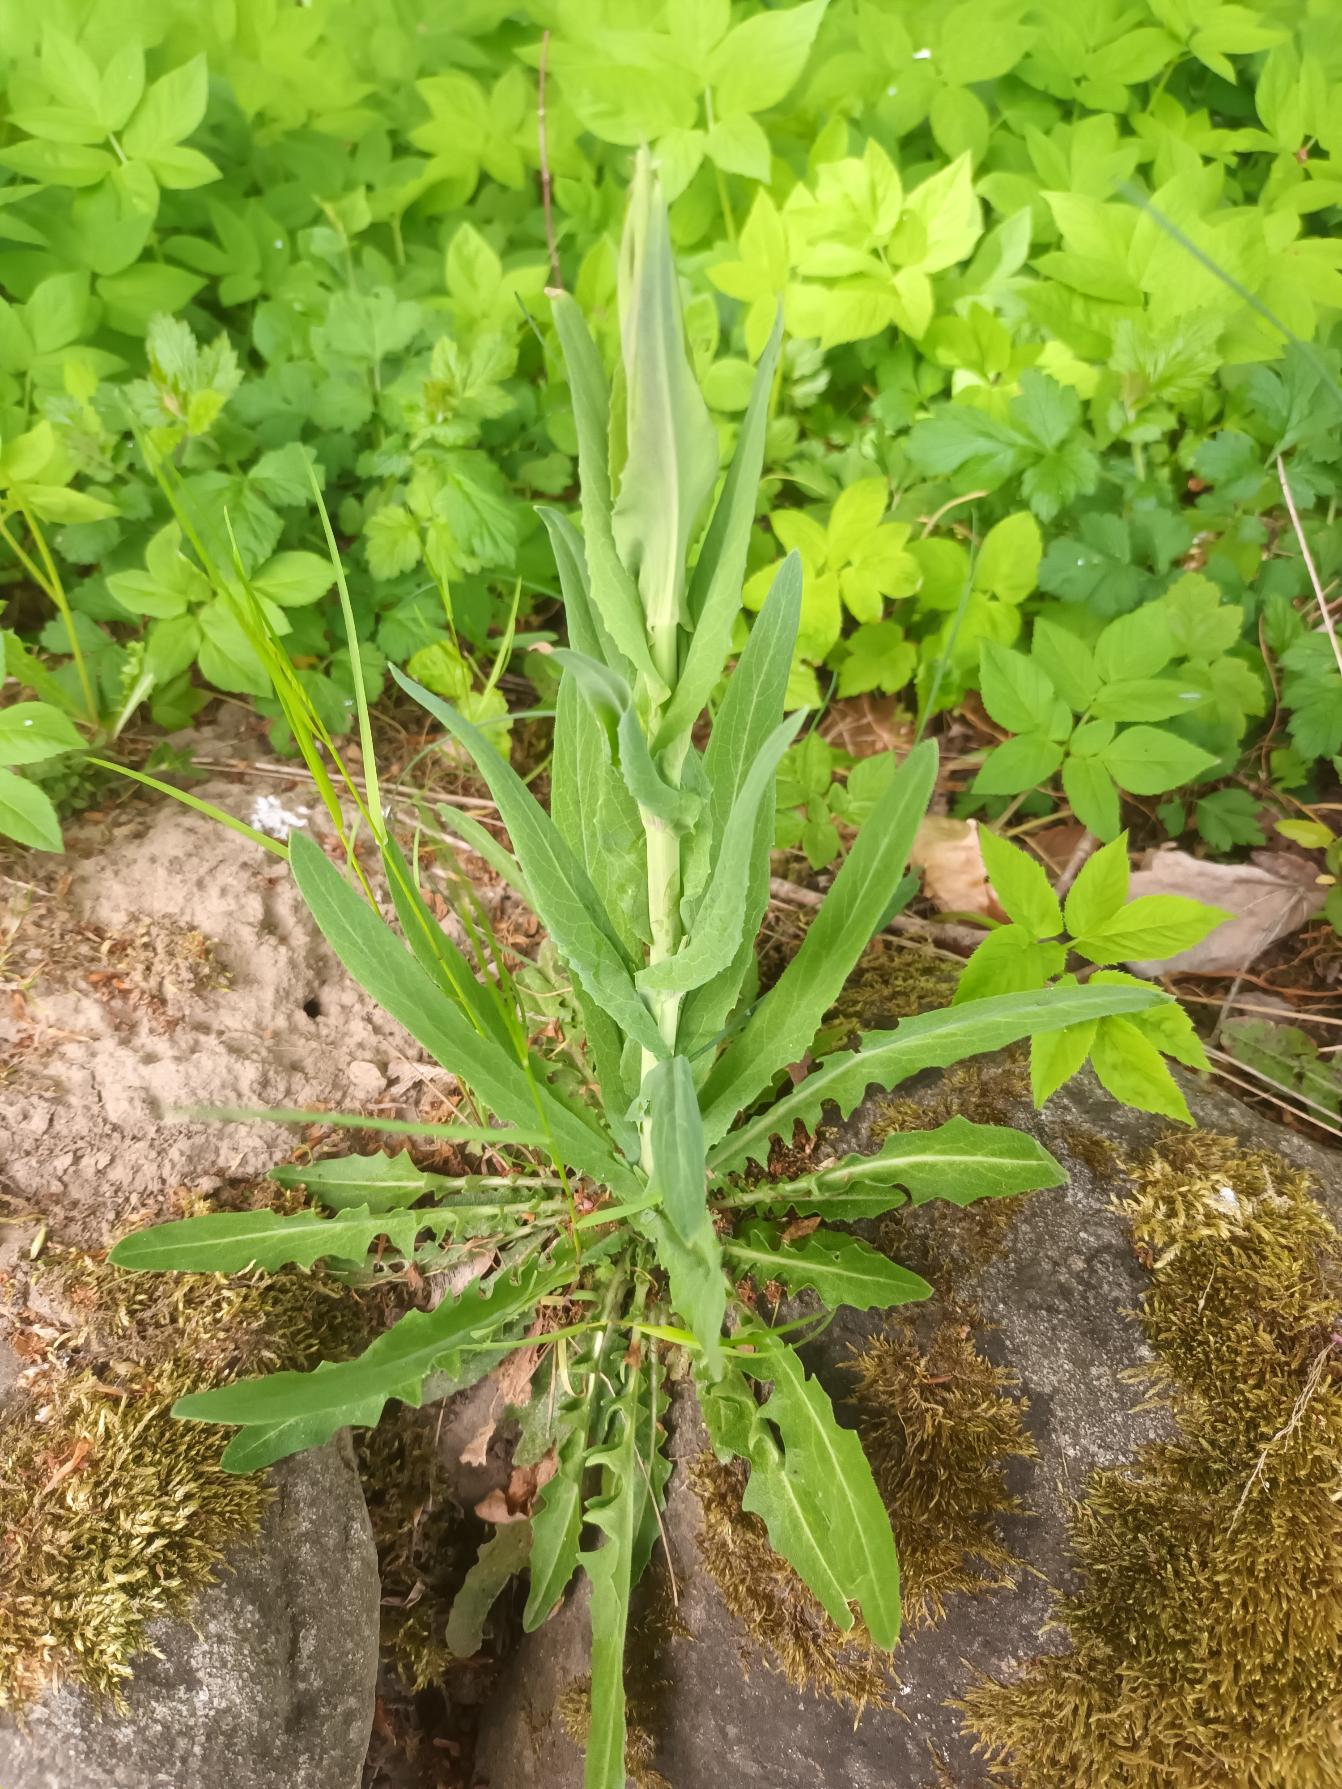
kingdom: Plantae
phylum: Tracheophyta
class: Magnoliopsida
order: Brassicales
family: Brassicaceae
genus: Turritis
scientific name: Turritis glabra
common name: Tårnurt
